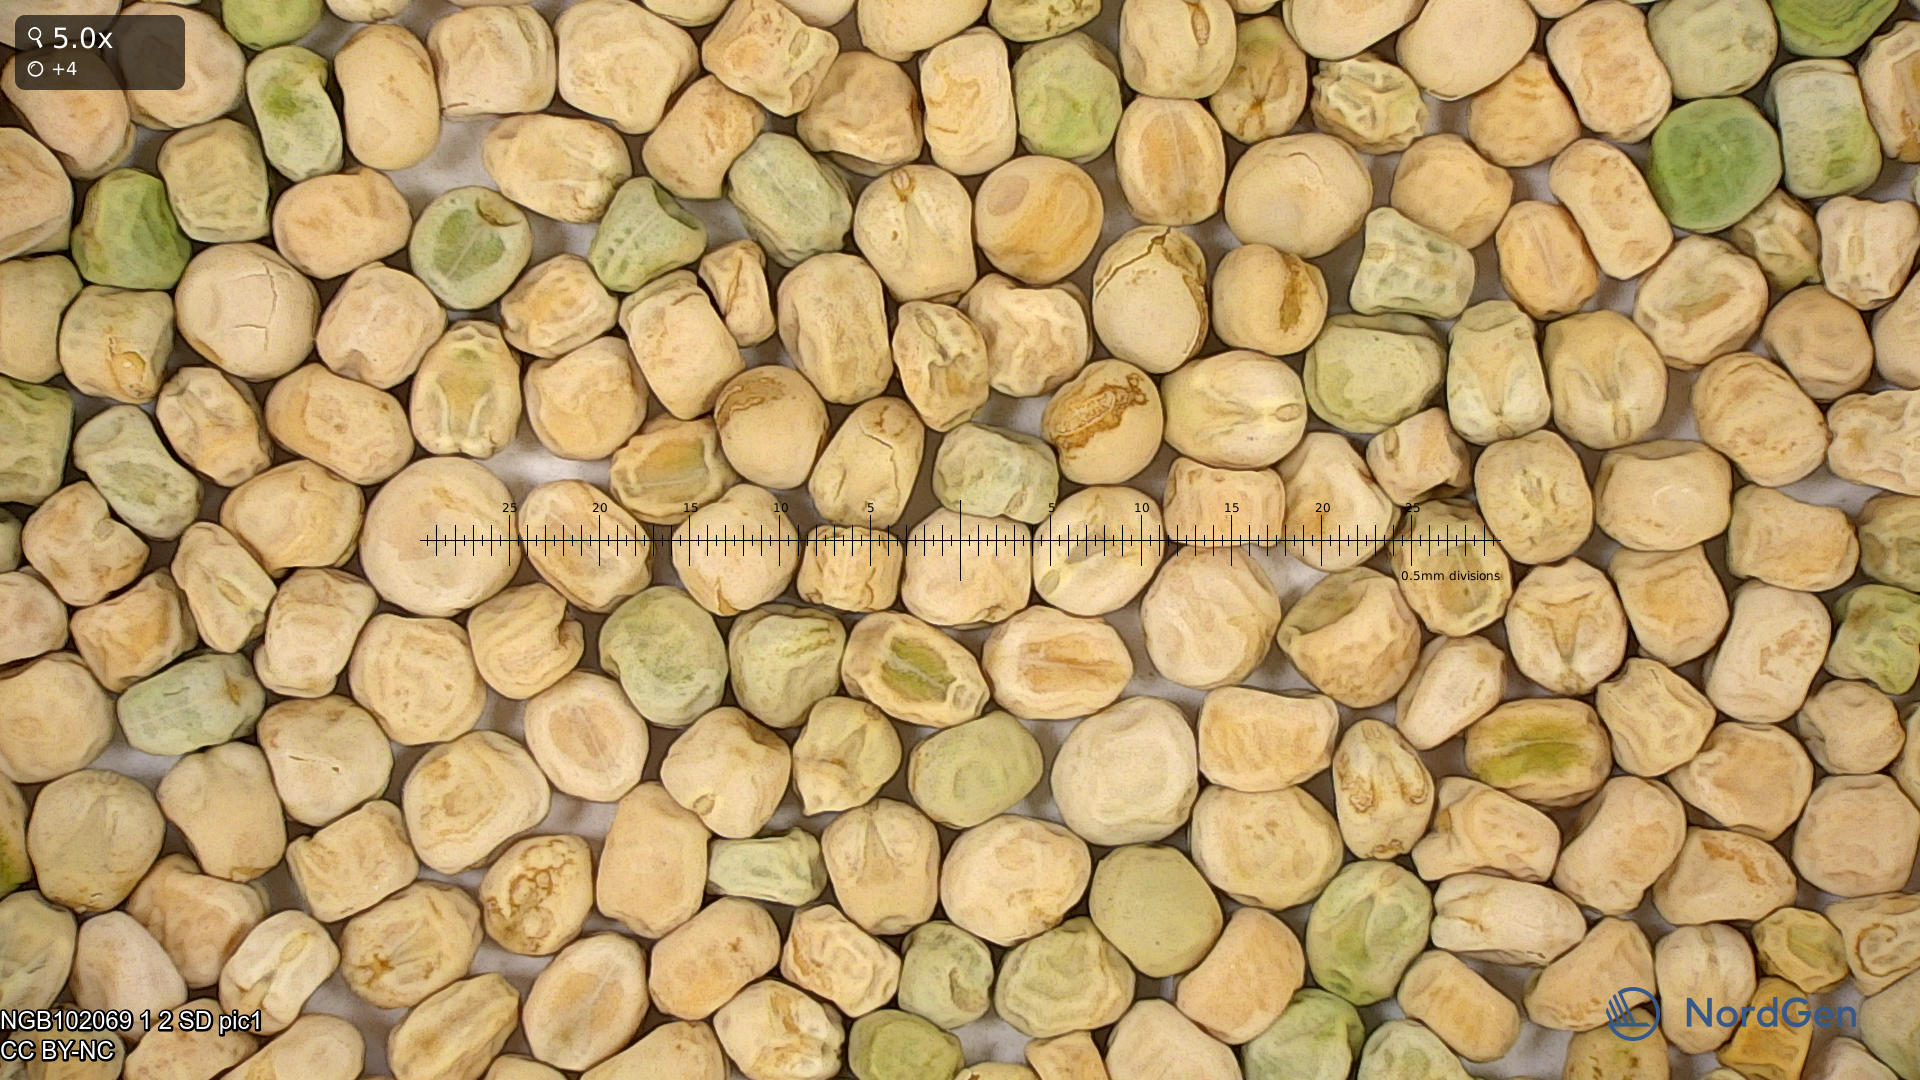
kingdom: Plantae
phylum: Tracheophyta
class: Magnoliopsida
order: Fabales
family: Fabaceae
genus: Lathyrus
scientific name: Lathyrus oleraceus
